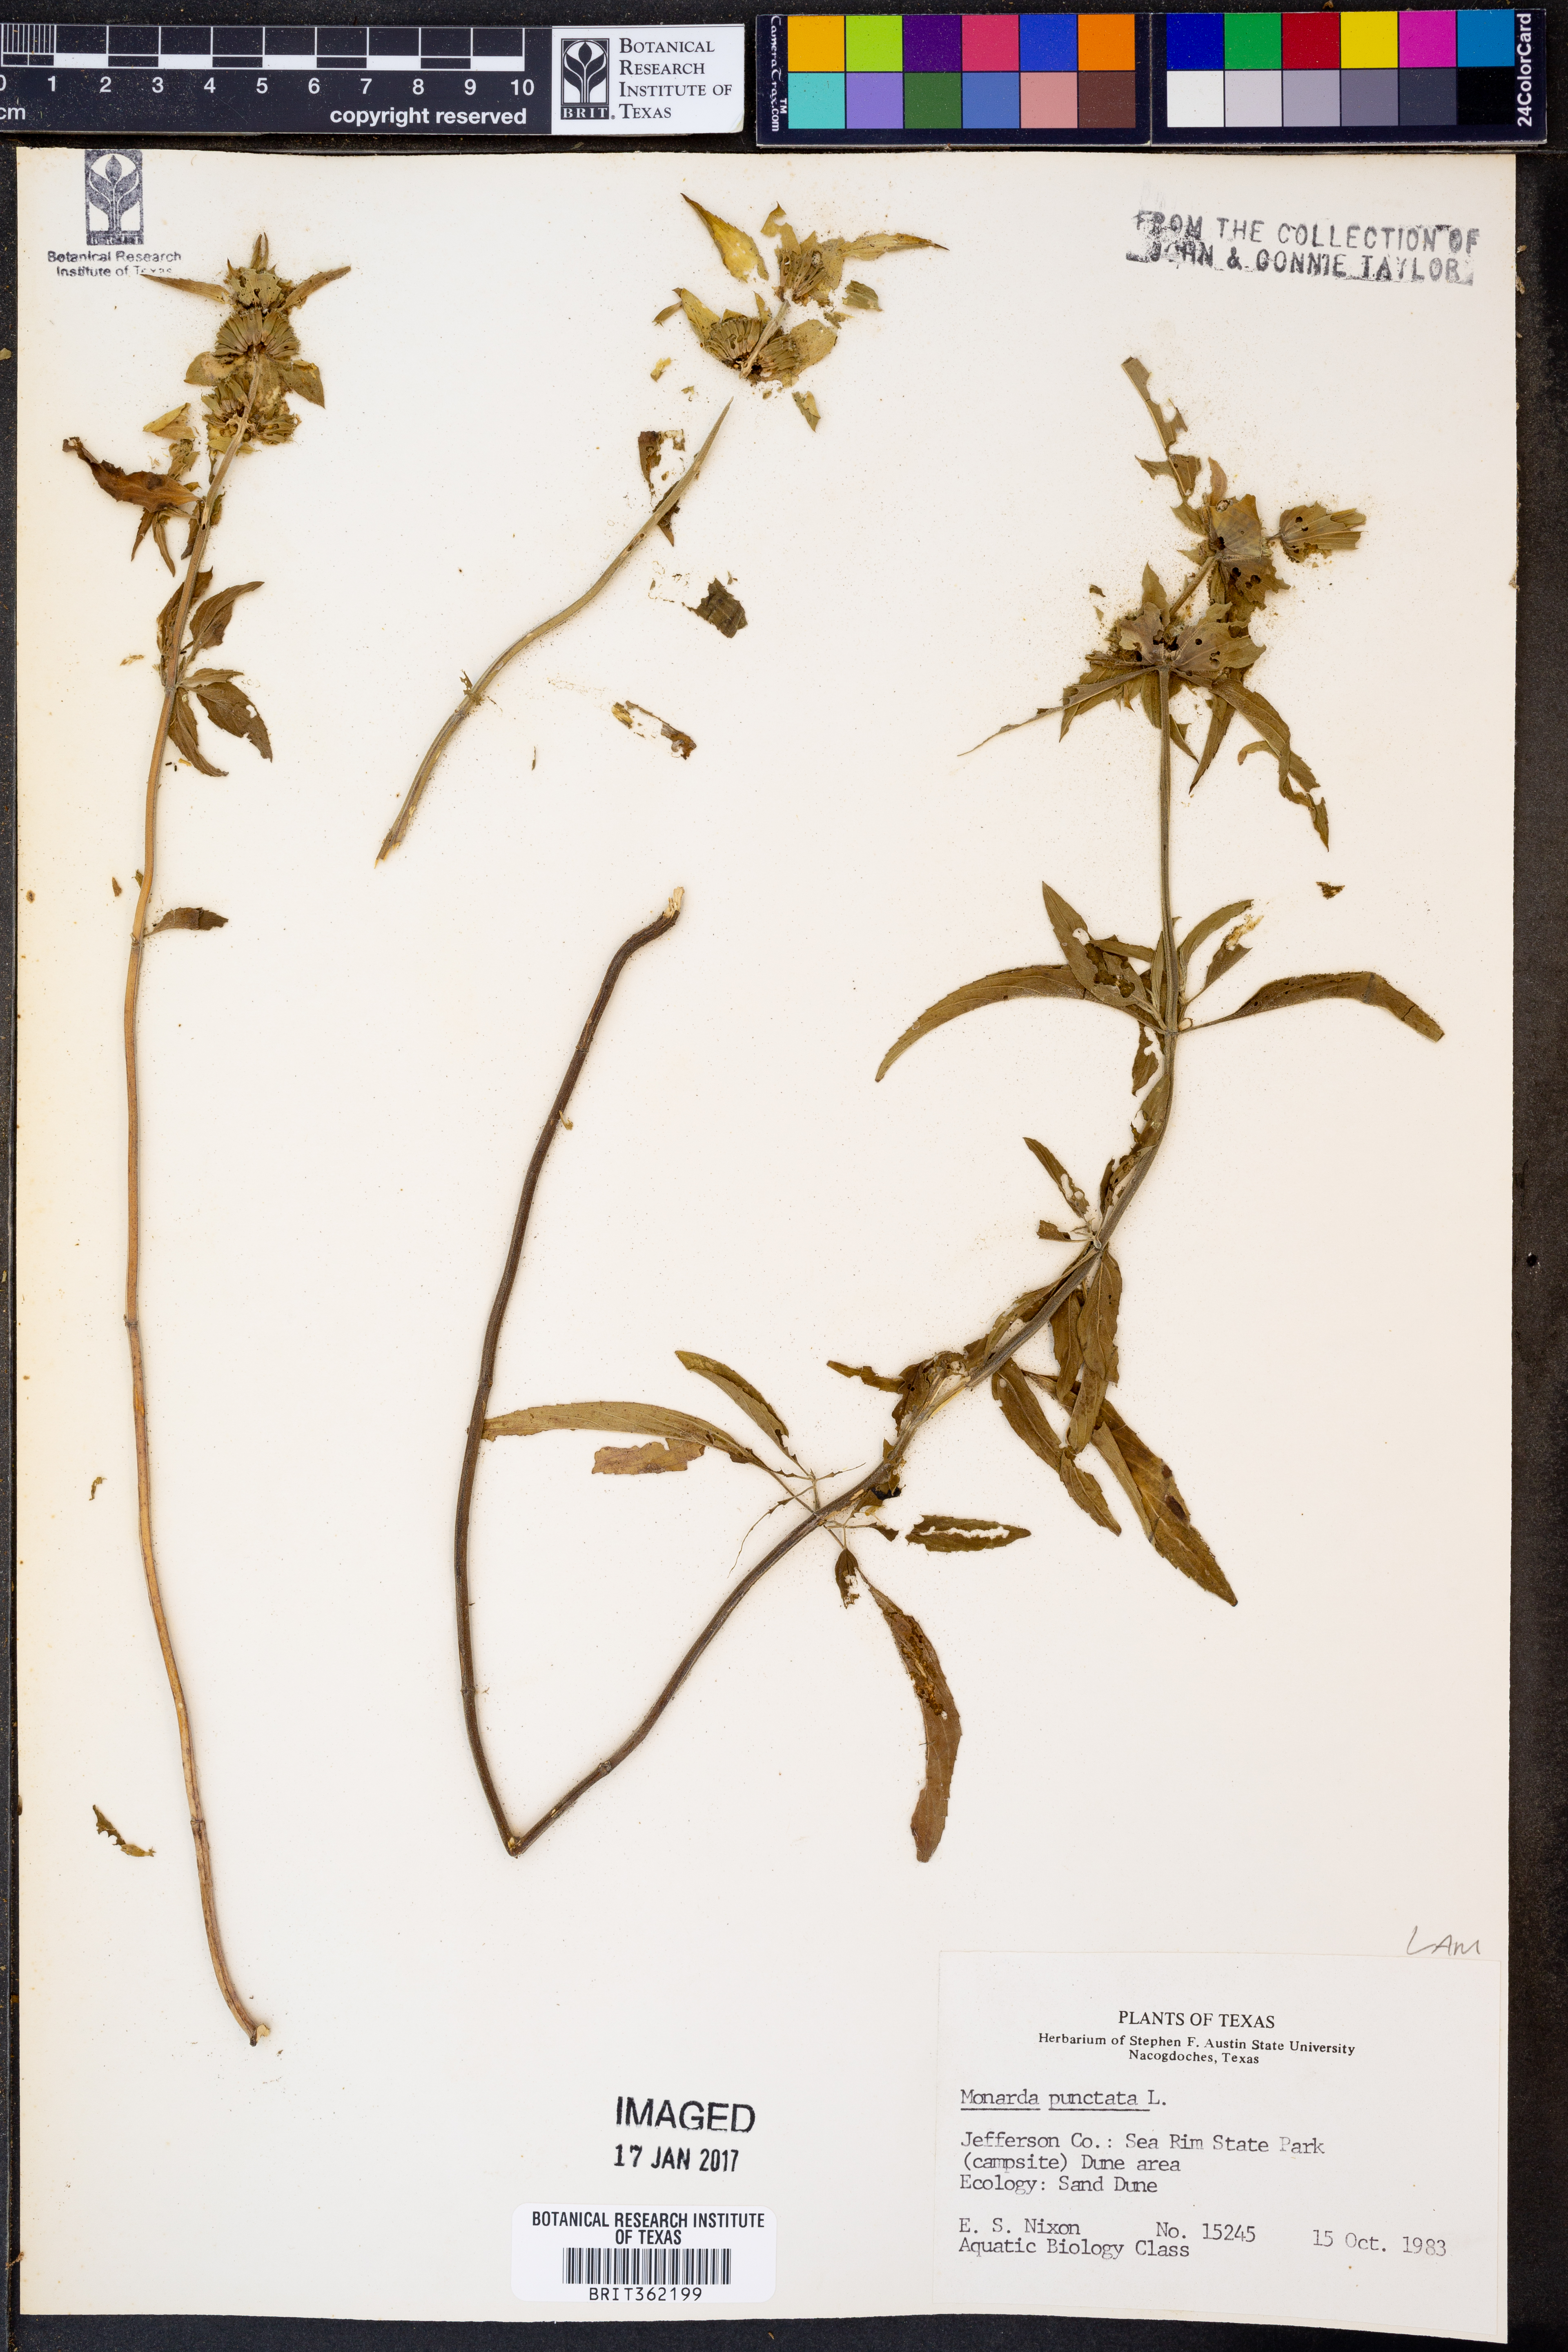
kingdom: Plantae
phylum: Tracheophyta
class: Magnoliopsida
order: Lamiales
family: Lamiaceae
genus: Monarda
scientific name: Monarda punctata
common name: Dotted monarda
